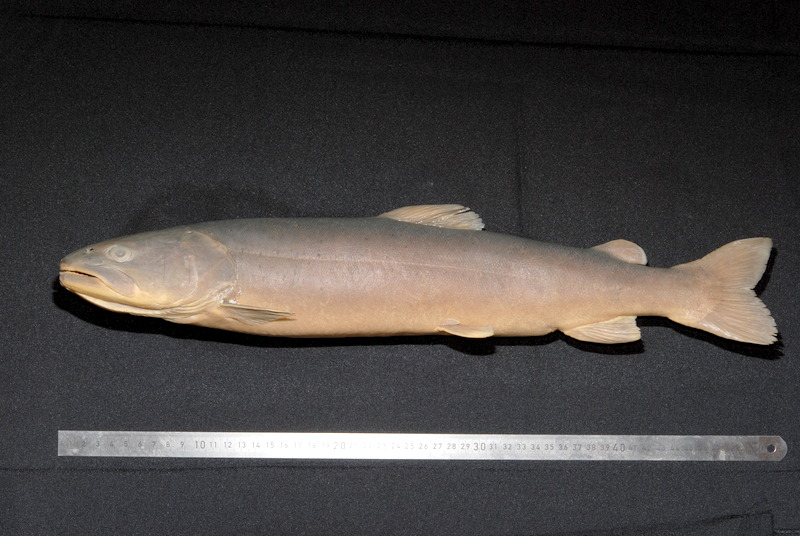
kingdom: Animalia
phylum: Chordata
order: Salmoniformes
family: Salmonidae
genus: Hucho
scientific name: Hucho hucho
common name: Huchen (danube salmon)
